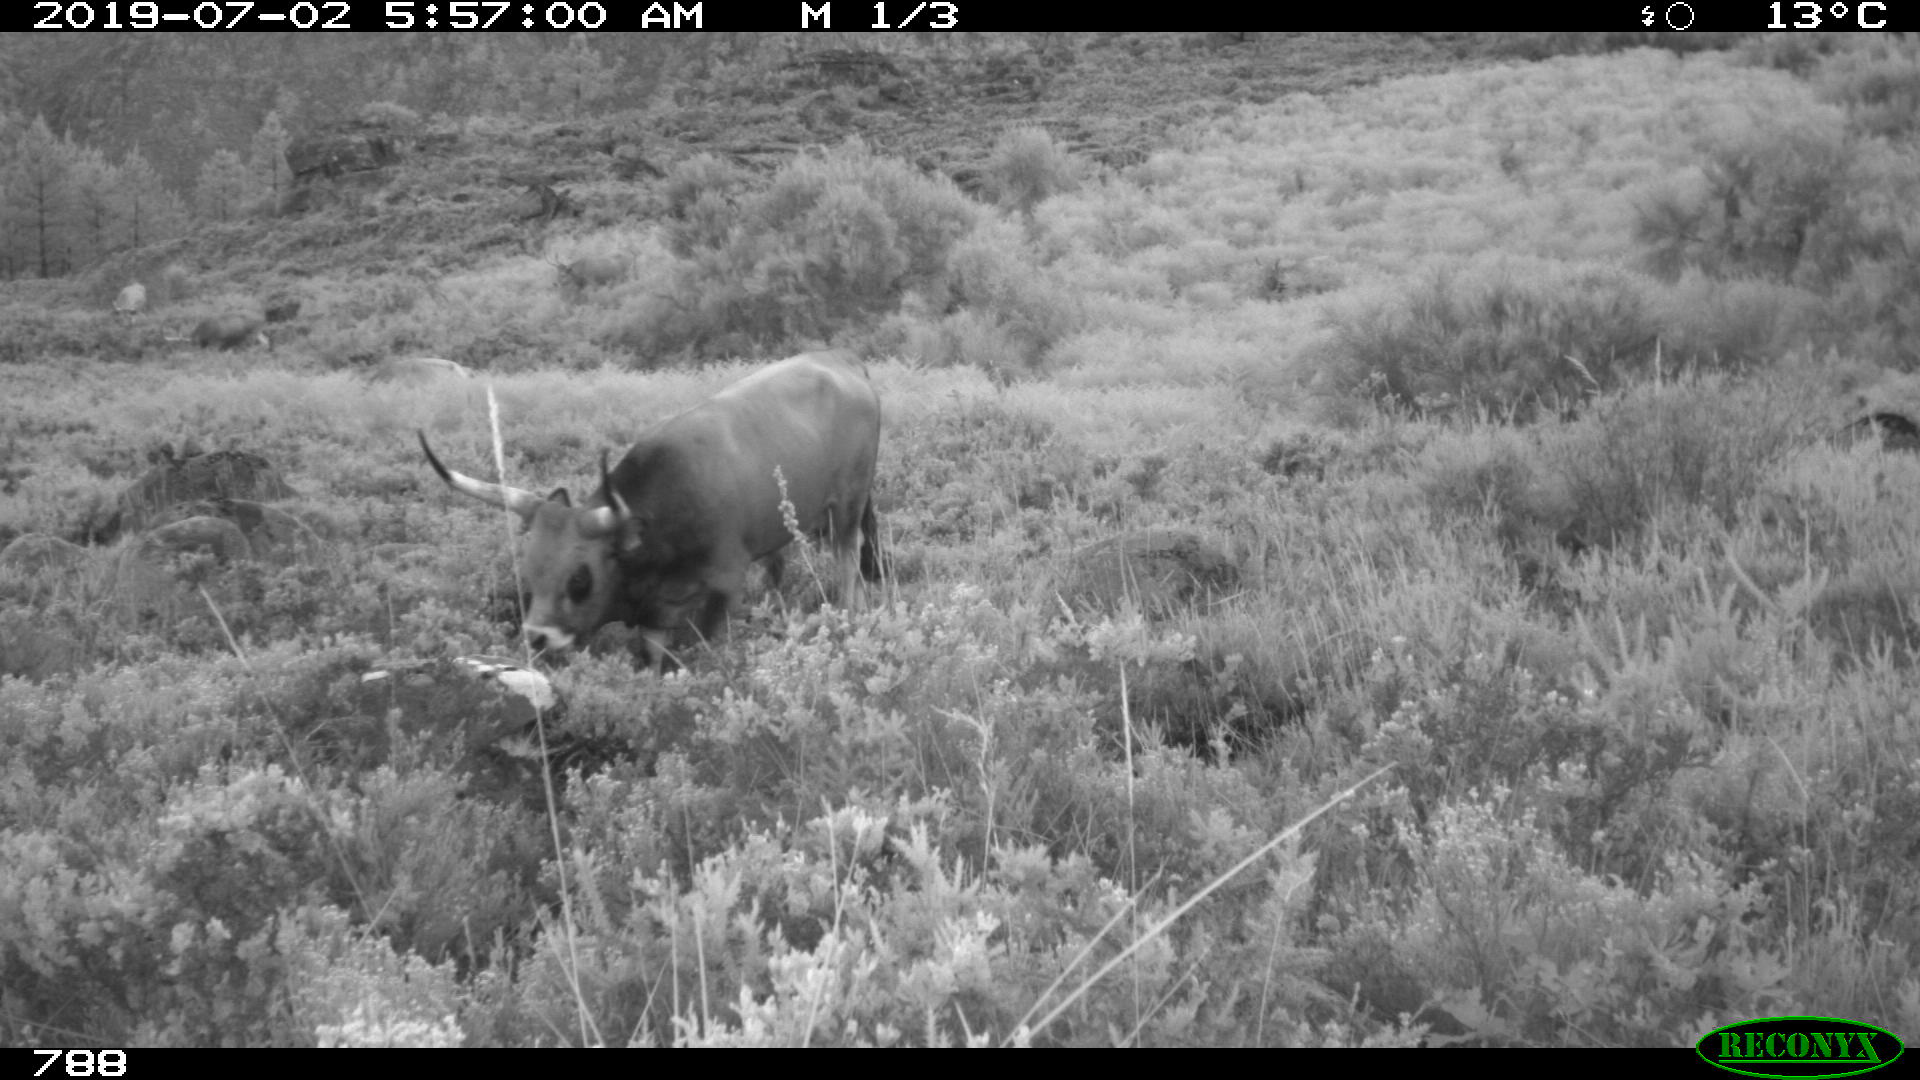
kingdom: Animalia
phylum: Chordata
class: Mammalia
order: Artiodactyla
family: Bovidae
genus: Bos
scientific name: Bos taurus
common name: Domesticated cattle
